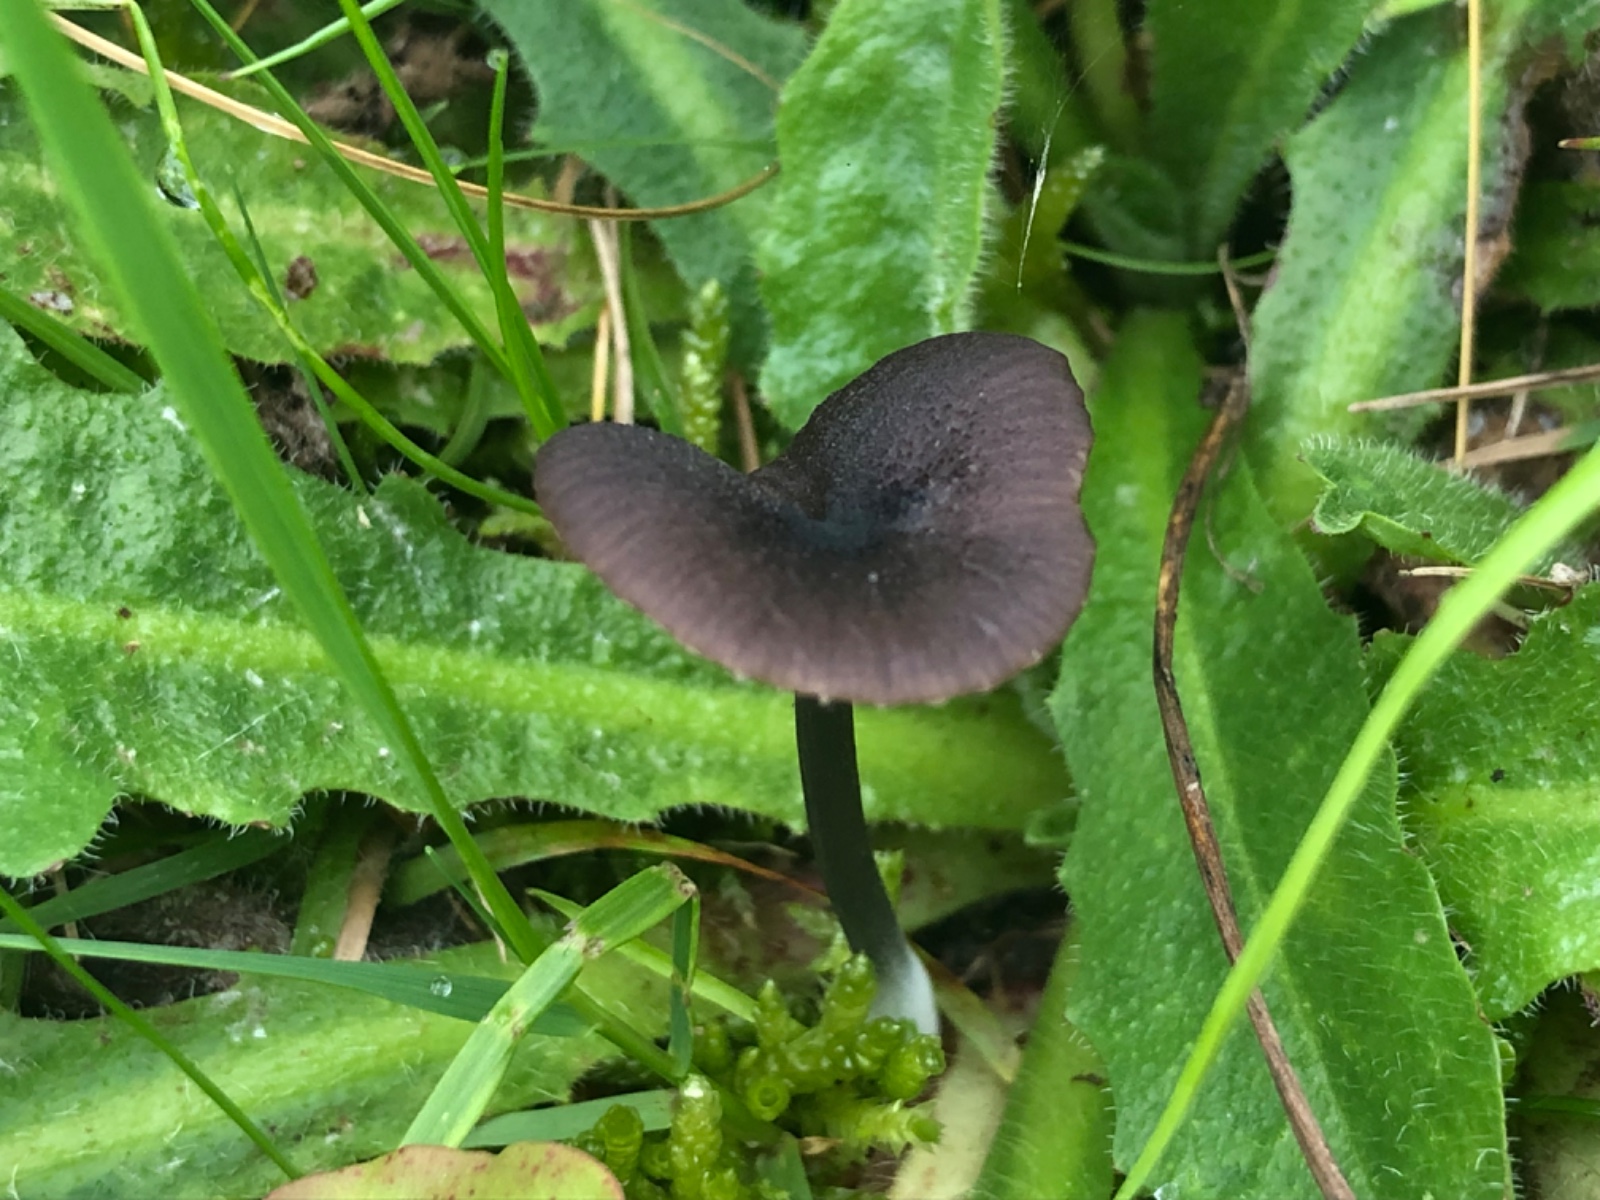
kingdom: Fungi
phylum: Basidiomycota
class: Agaricomycetes
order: Agaricales
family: Entolomataceae
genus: Entoloma
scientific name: Entoloma porphyrogriseum
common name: porfyrgrå rødblad
